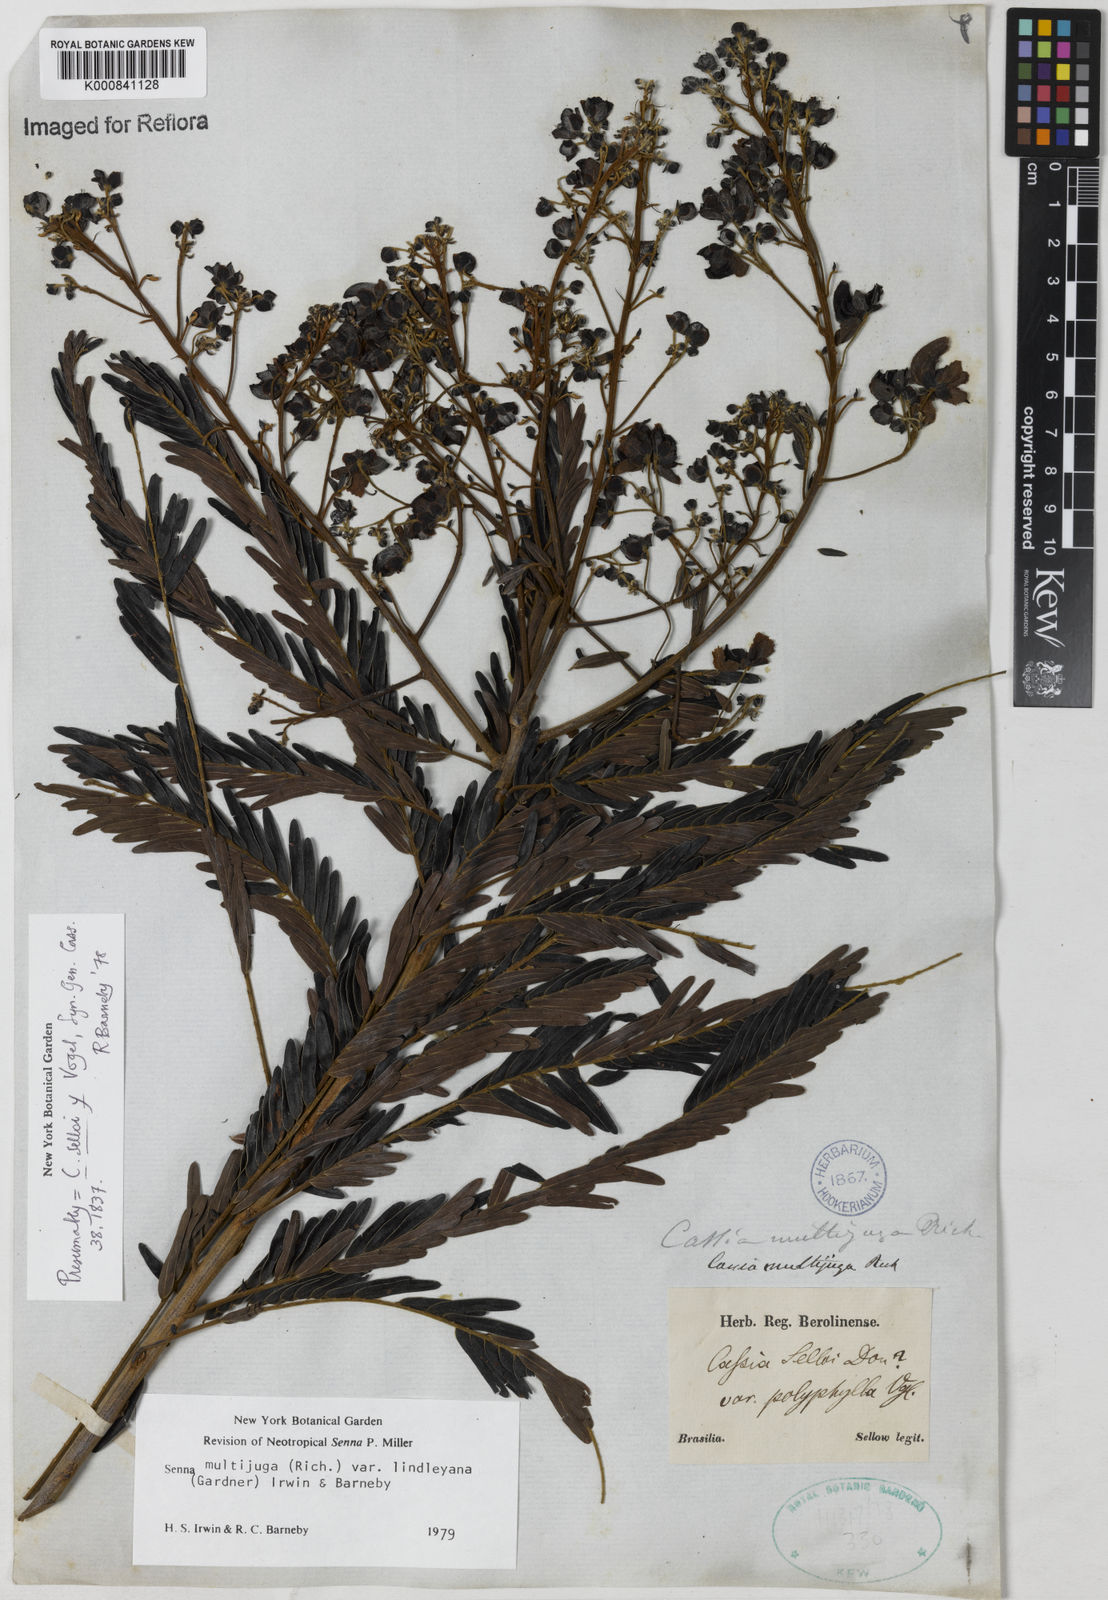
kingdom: Plantae
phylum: Tracheophyta
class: Magnoliopsida
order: Fabales
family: Fabaceae
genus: Senna
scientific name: Senna multijuga
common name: False sicklepod
